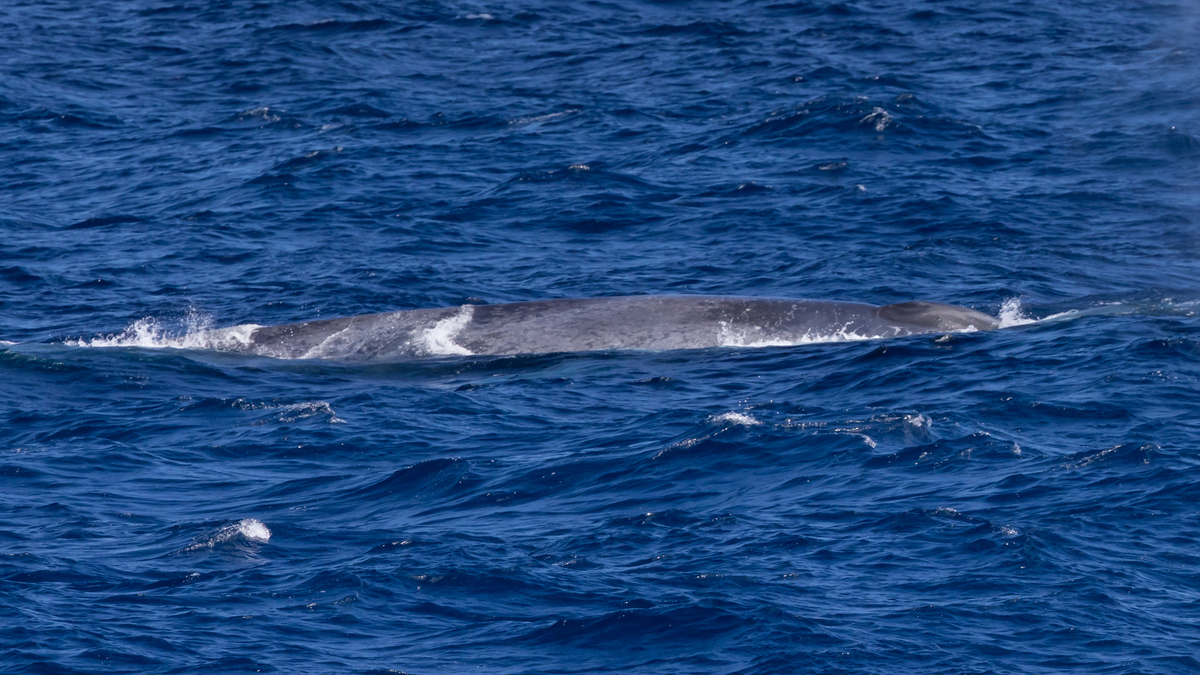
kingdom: Animalia
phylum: Chordata
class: Mammalia
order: Cetacea
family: Balaenopteridae
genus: Balaenoptera
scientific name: Balaenoptera musculus
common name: Blue whale
